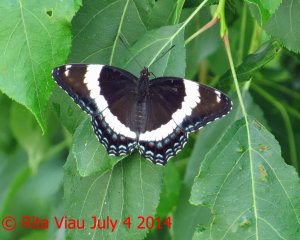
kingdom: Animalia
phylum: Arthropoda
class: Insecta
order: Lepidoptera
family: Nymphalidae
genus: Limenitis
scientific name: Limenitis arthemis
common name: Red-spotted Admiral
